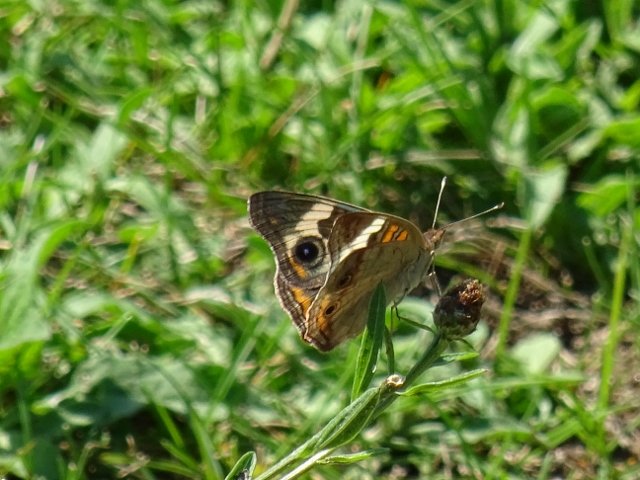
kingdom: Animalia
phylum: Arthropoda
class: Insecta
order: Lepidoptera
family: Nymphalidae
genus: Junonia
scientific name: Junonia coenia
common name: Common Buckeye
